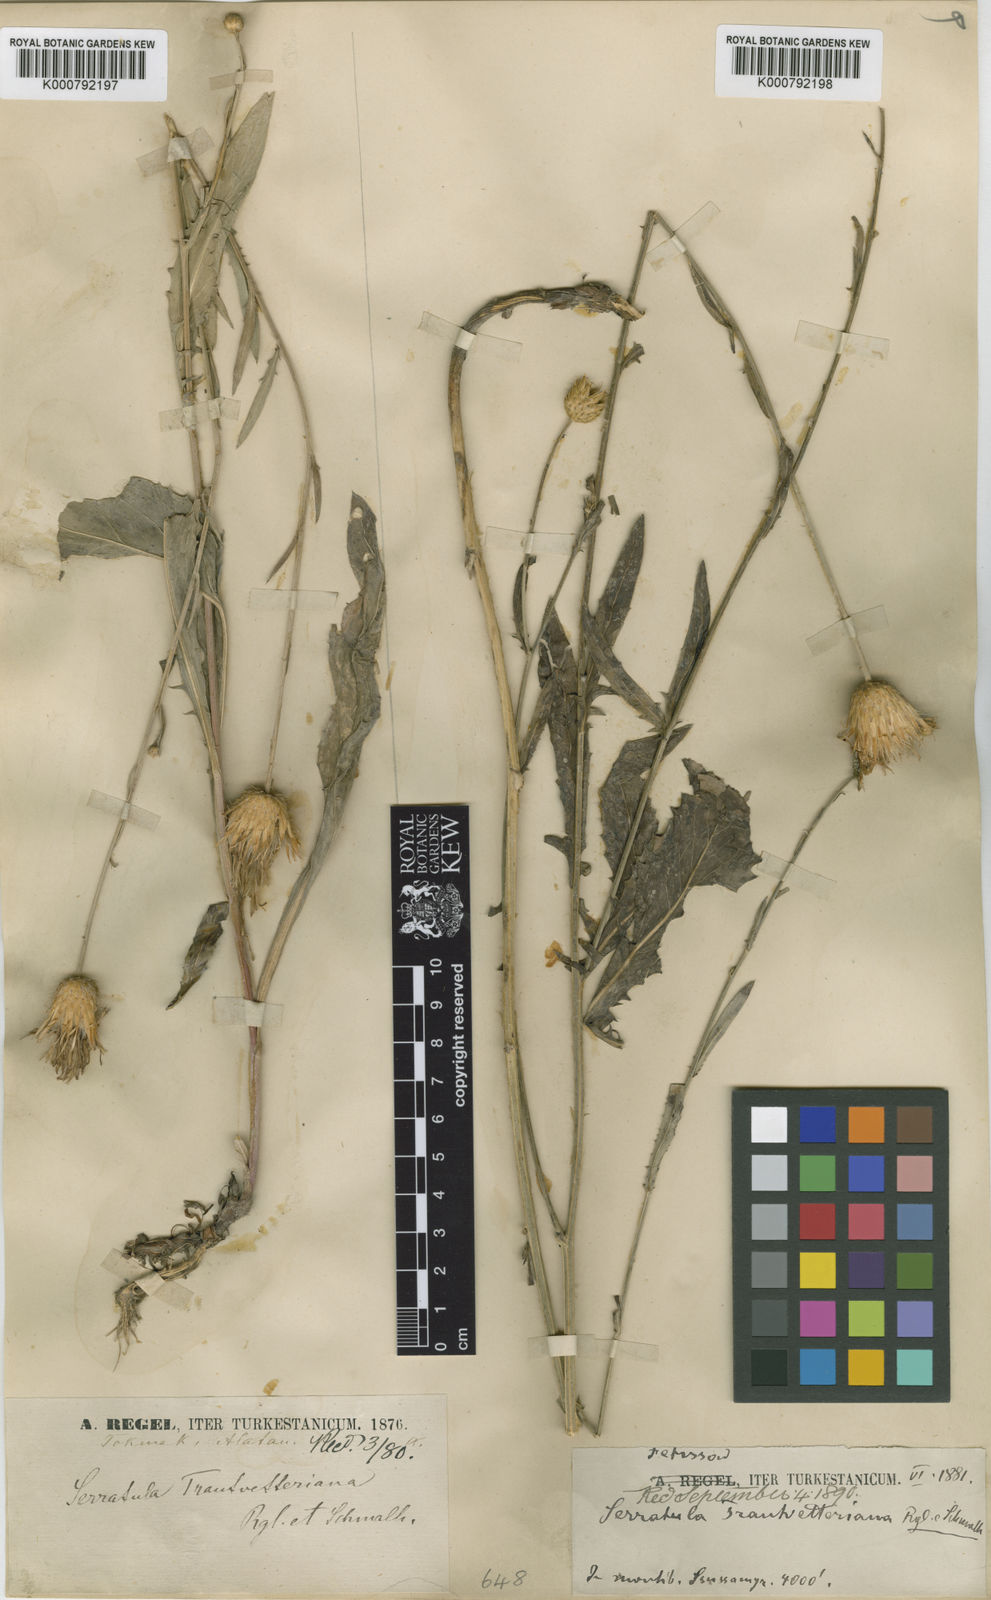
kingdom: Plantae
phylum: Tracheophyta
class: Magnoliopsida
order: Asterales
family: Asteraceae
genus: Klasea
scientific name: Klasea sogdiana
